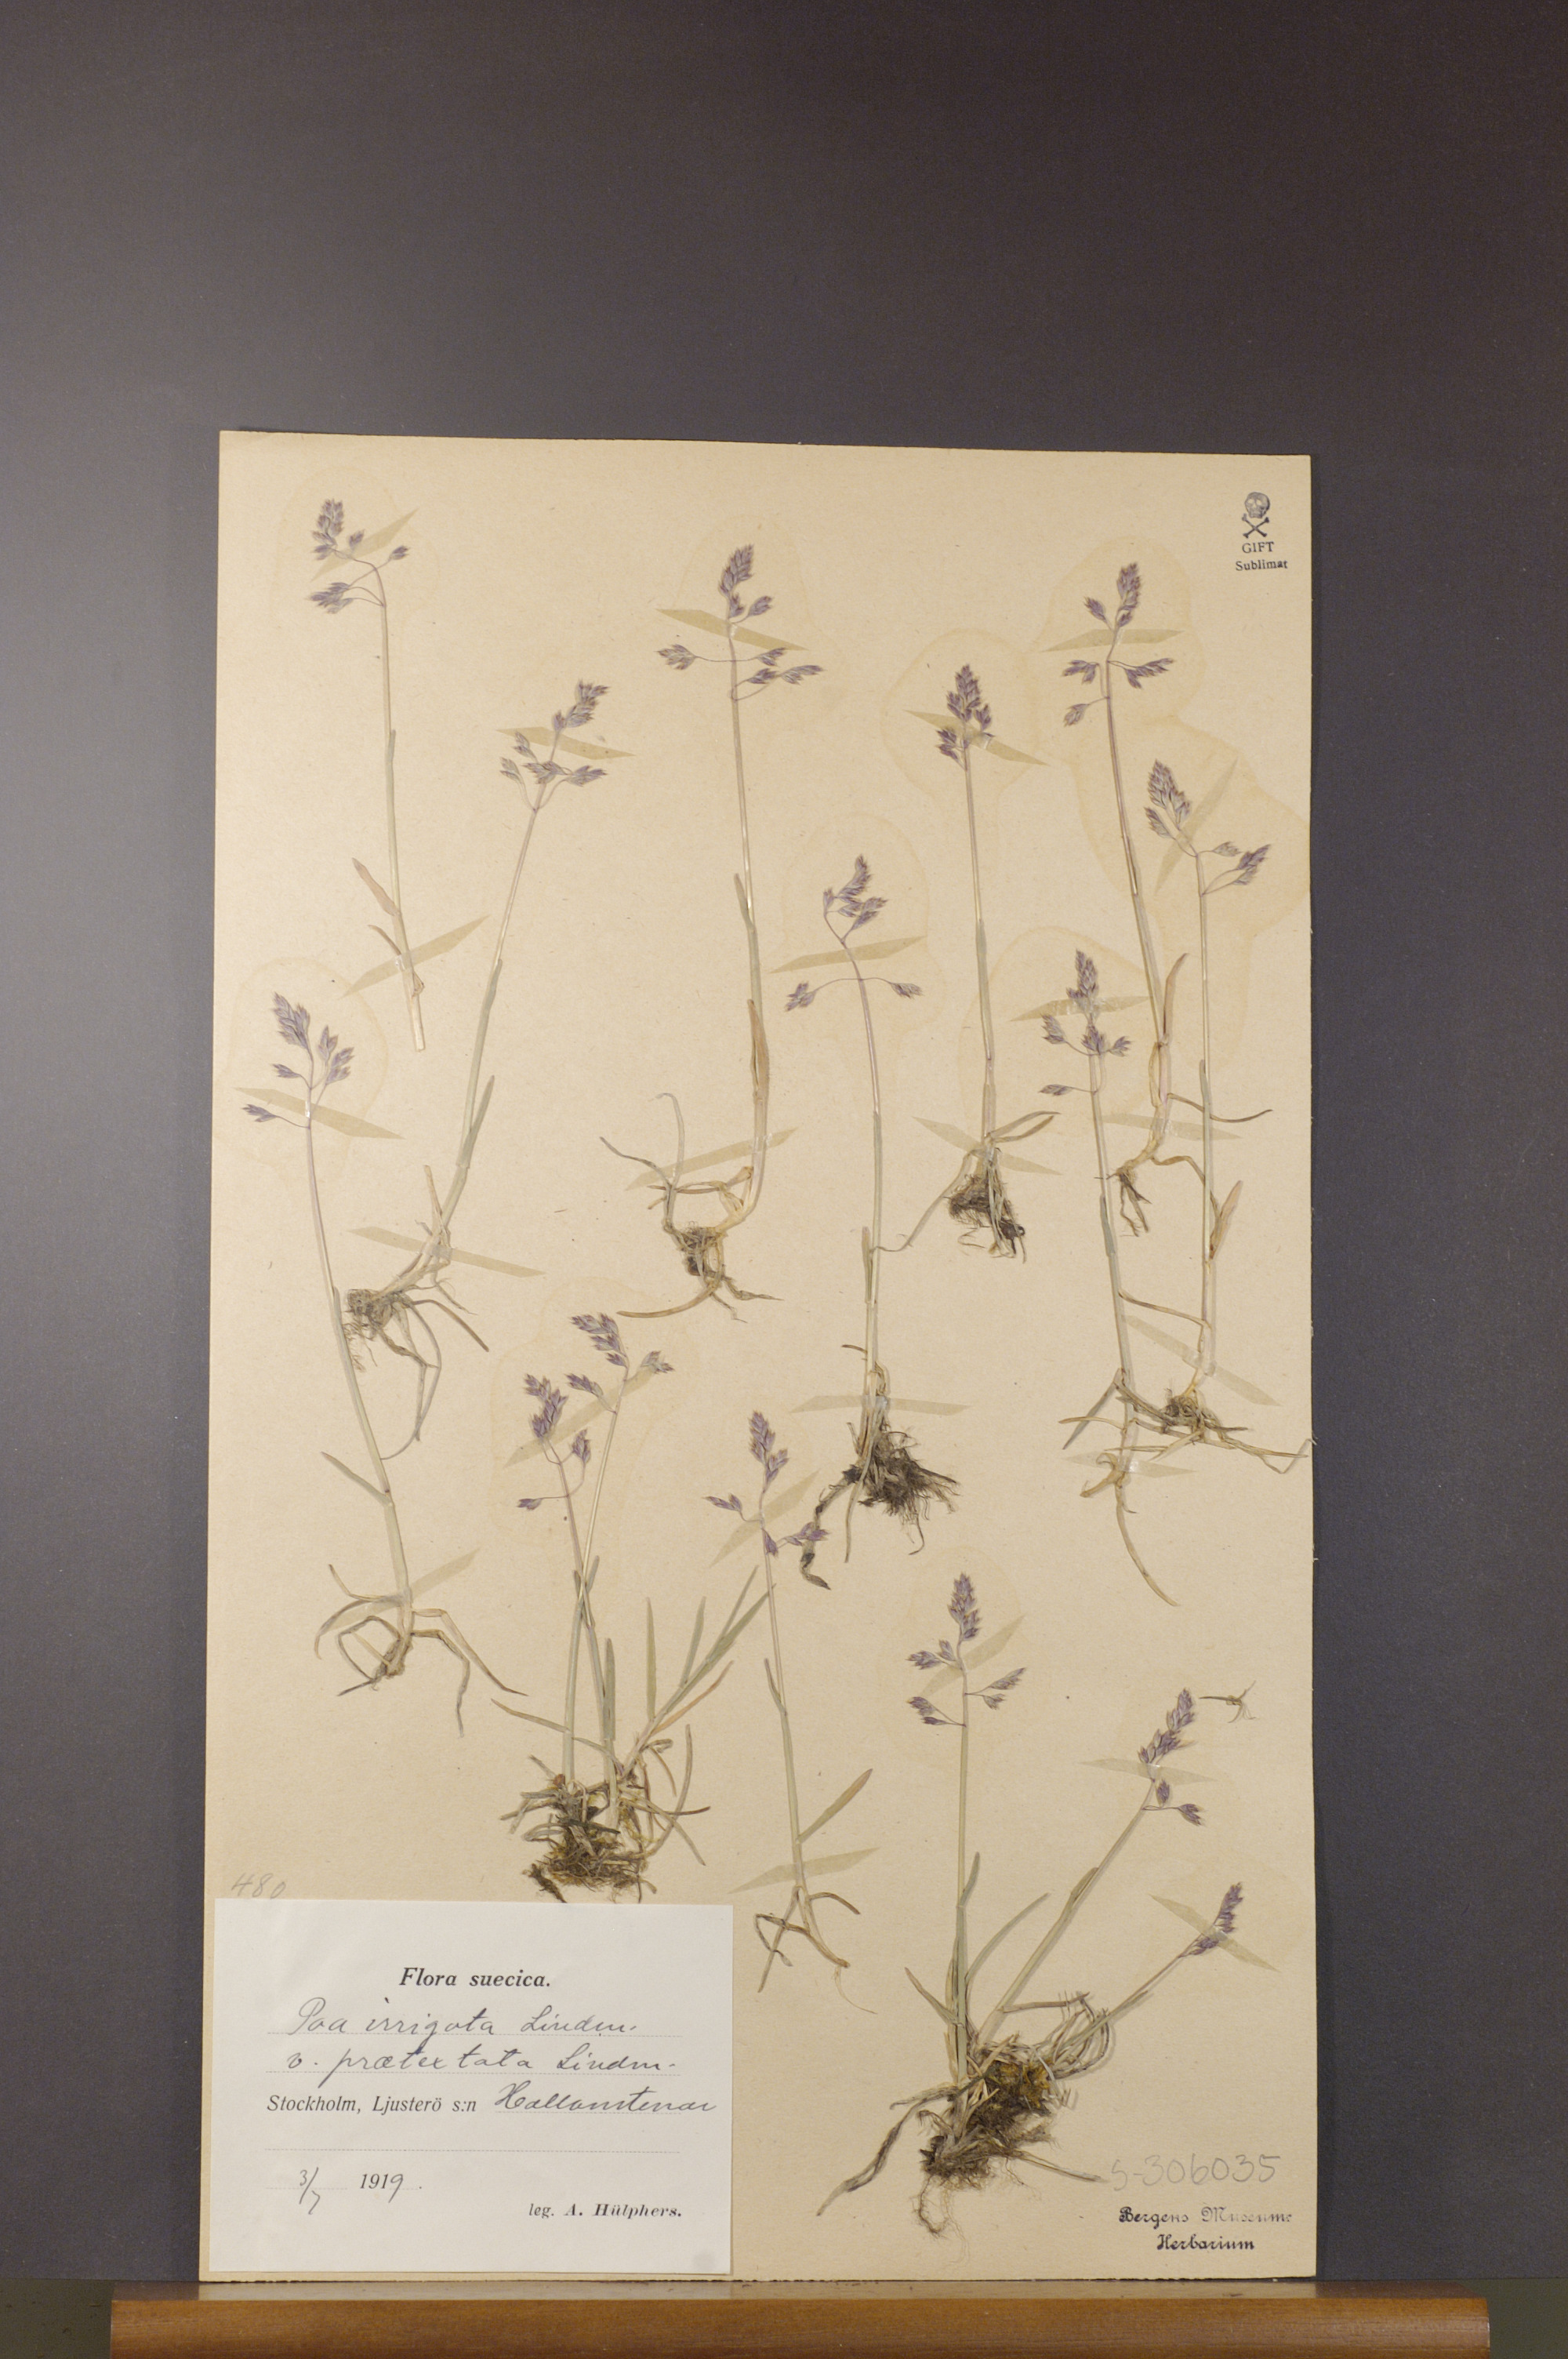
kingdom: Plantae
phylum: Tracheophyta
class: Liliopsida
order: Poales
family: Poaceae
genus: Poa
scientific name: Poa humilis
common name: Spreading meadow-grass
